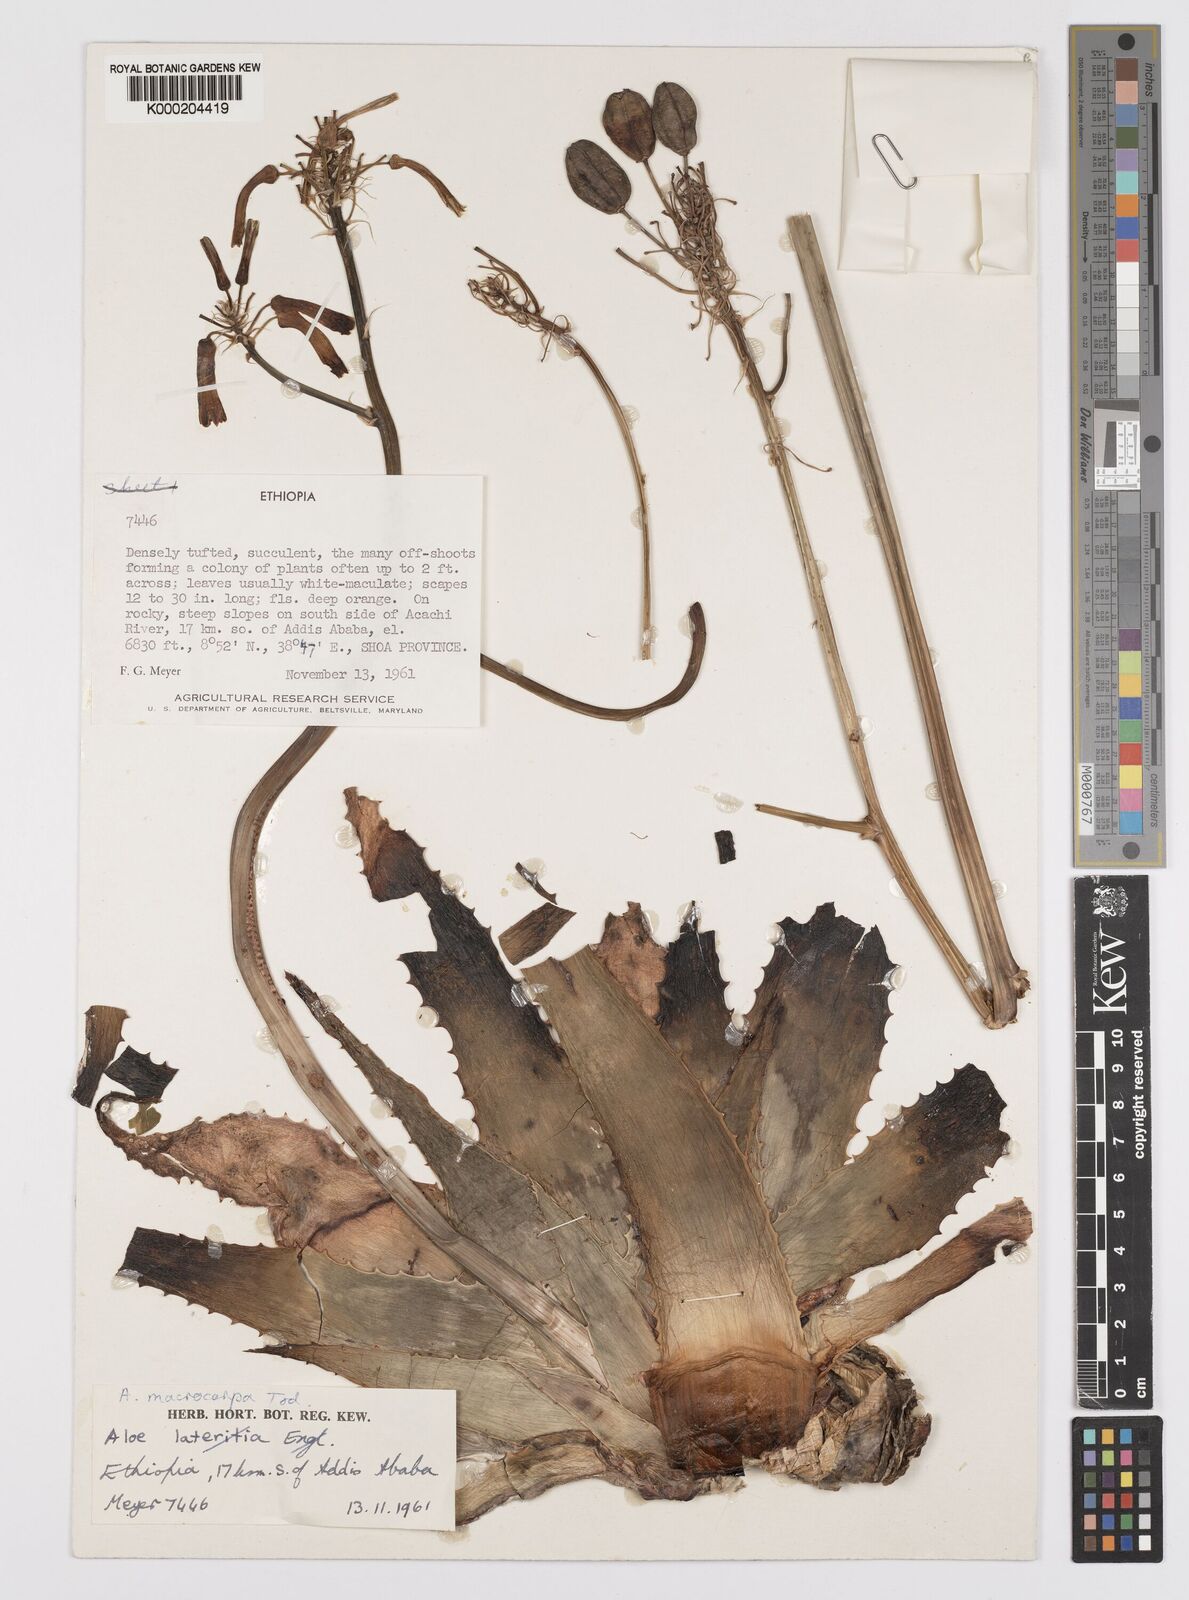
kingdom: Plantae
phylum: Tracheophyta
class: Liliopsida
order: Asparagales
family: Asphodelaceae
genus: Aloe
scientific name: Aloe macrocarpa
